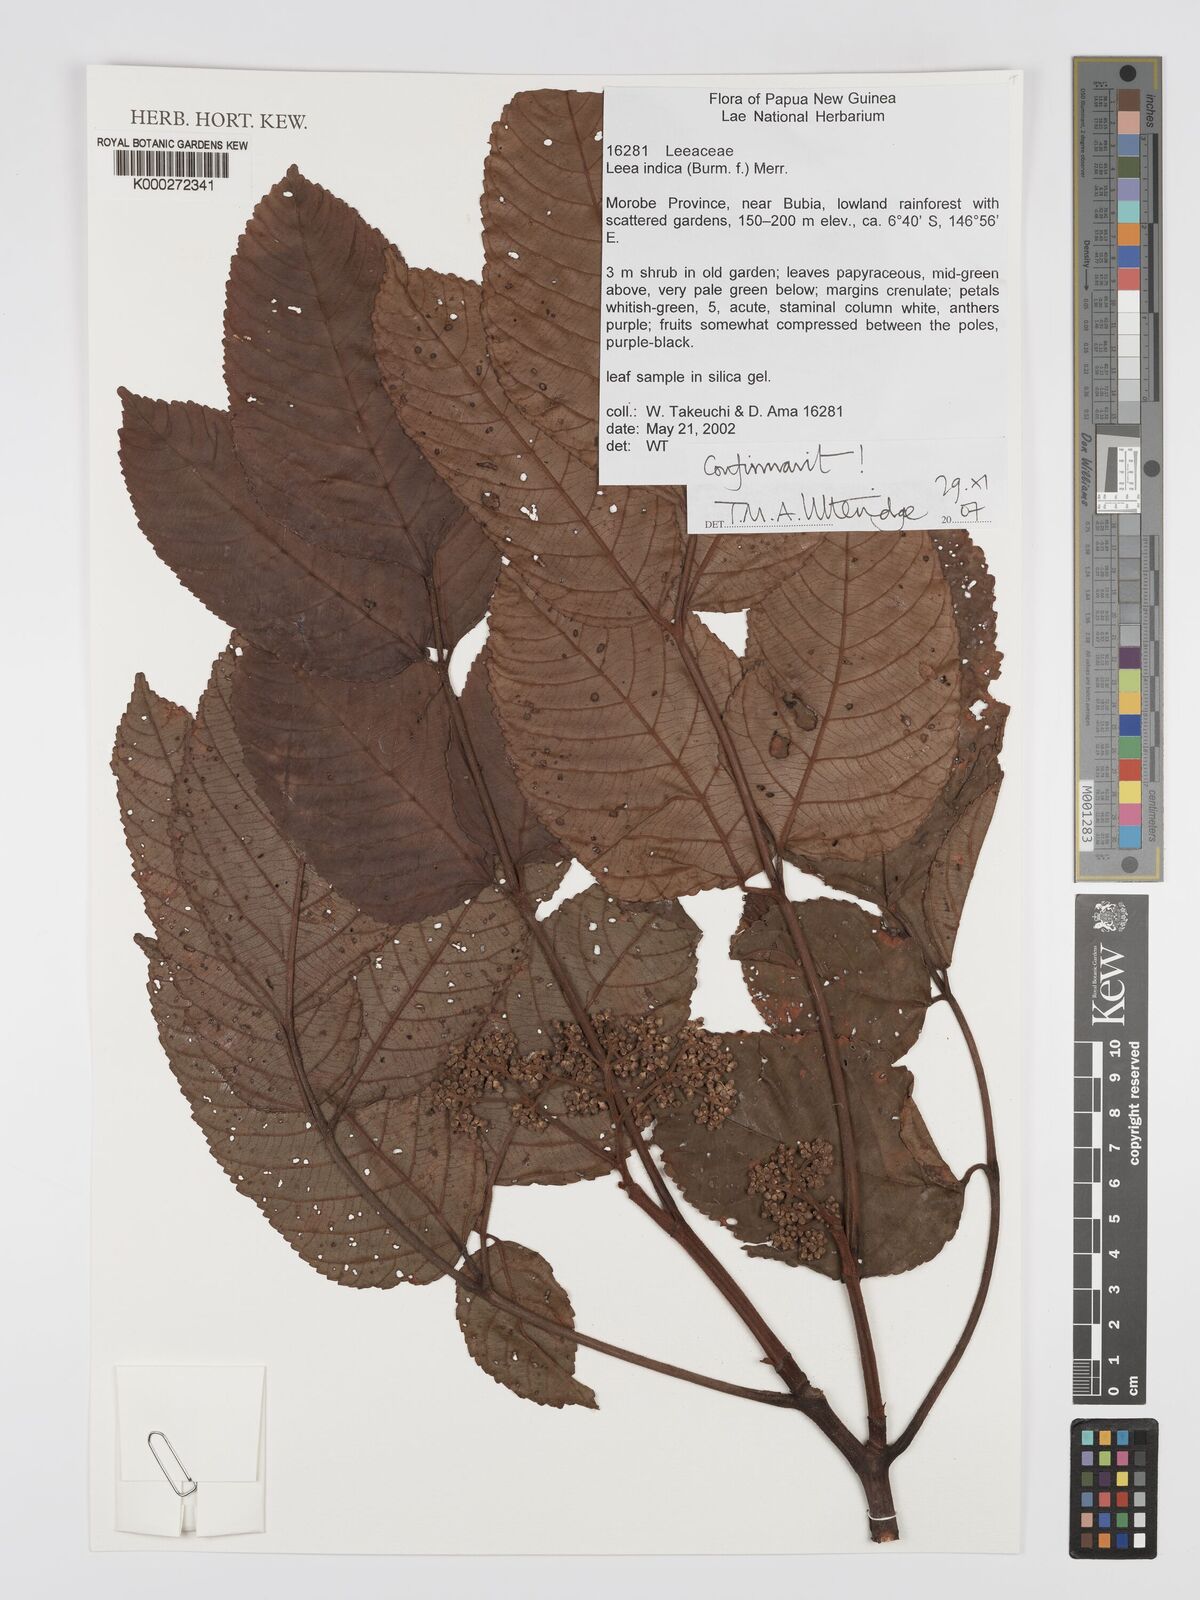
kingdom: Plantae
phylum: Tracheophyta
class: Magnoliopsida
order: Vitales
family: Vitaceae
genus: Leea
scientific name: Leea indica
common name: Bandicoot-berry
